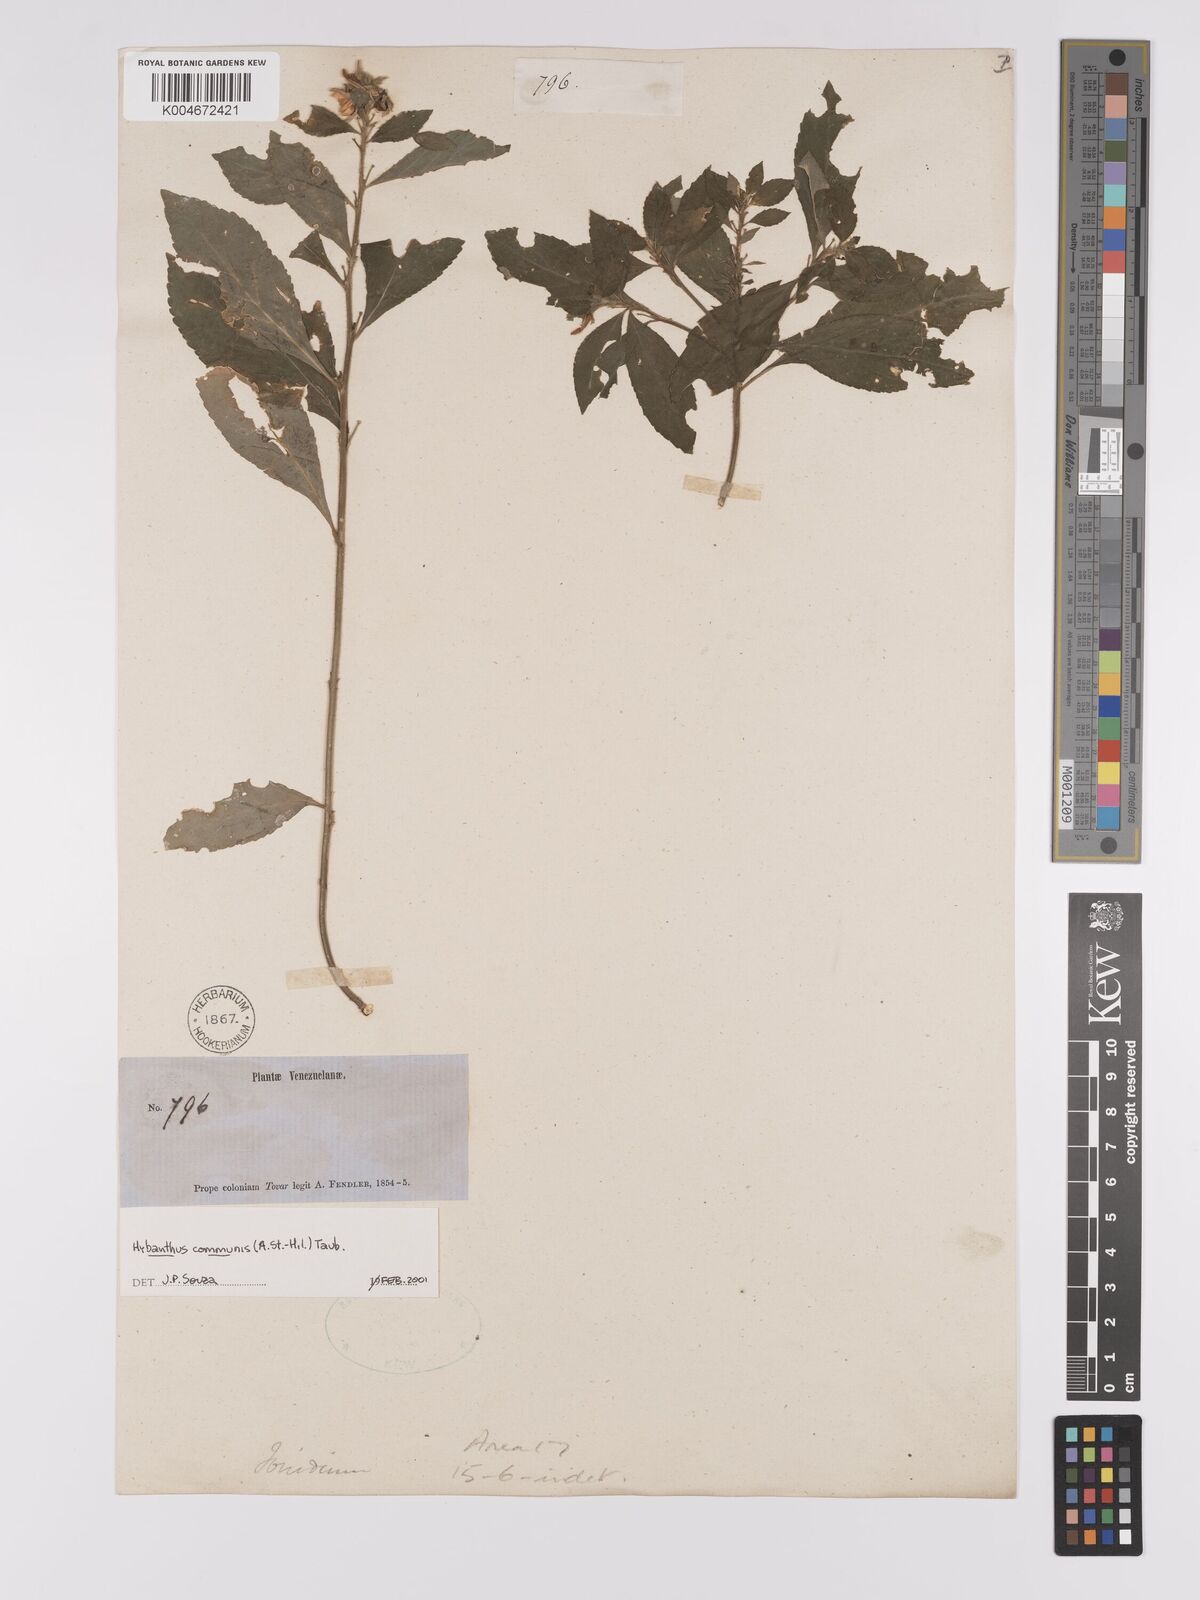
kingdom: Plantae
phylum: Tracheophyta
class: Magnoliopsida
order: Malpighiales
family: Violaceae
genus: Pombalia
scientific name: Pombalia communis
